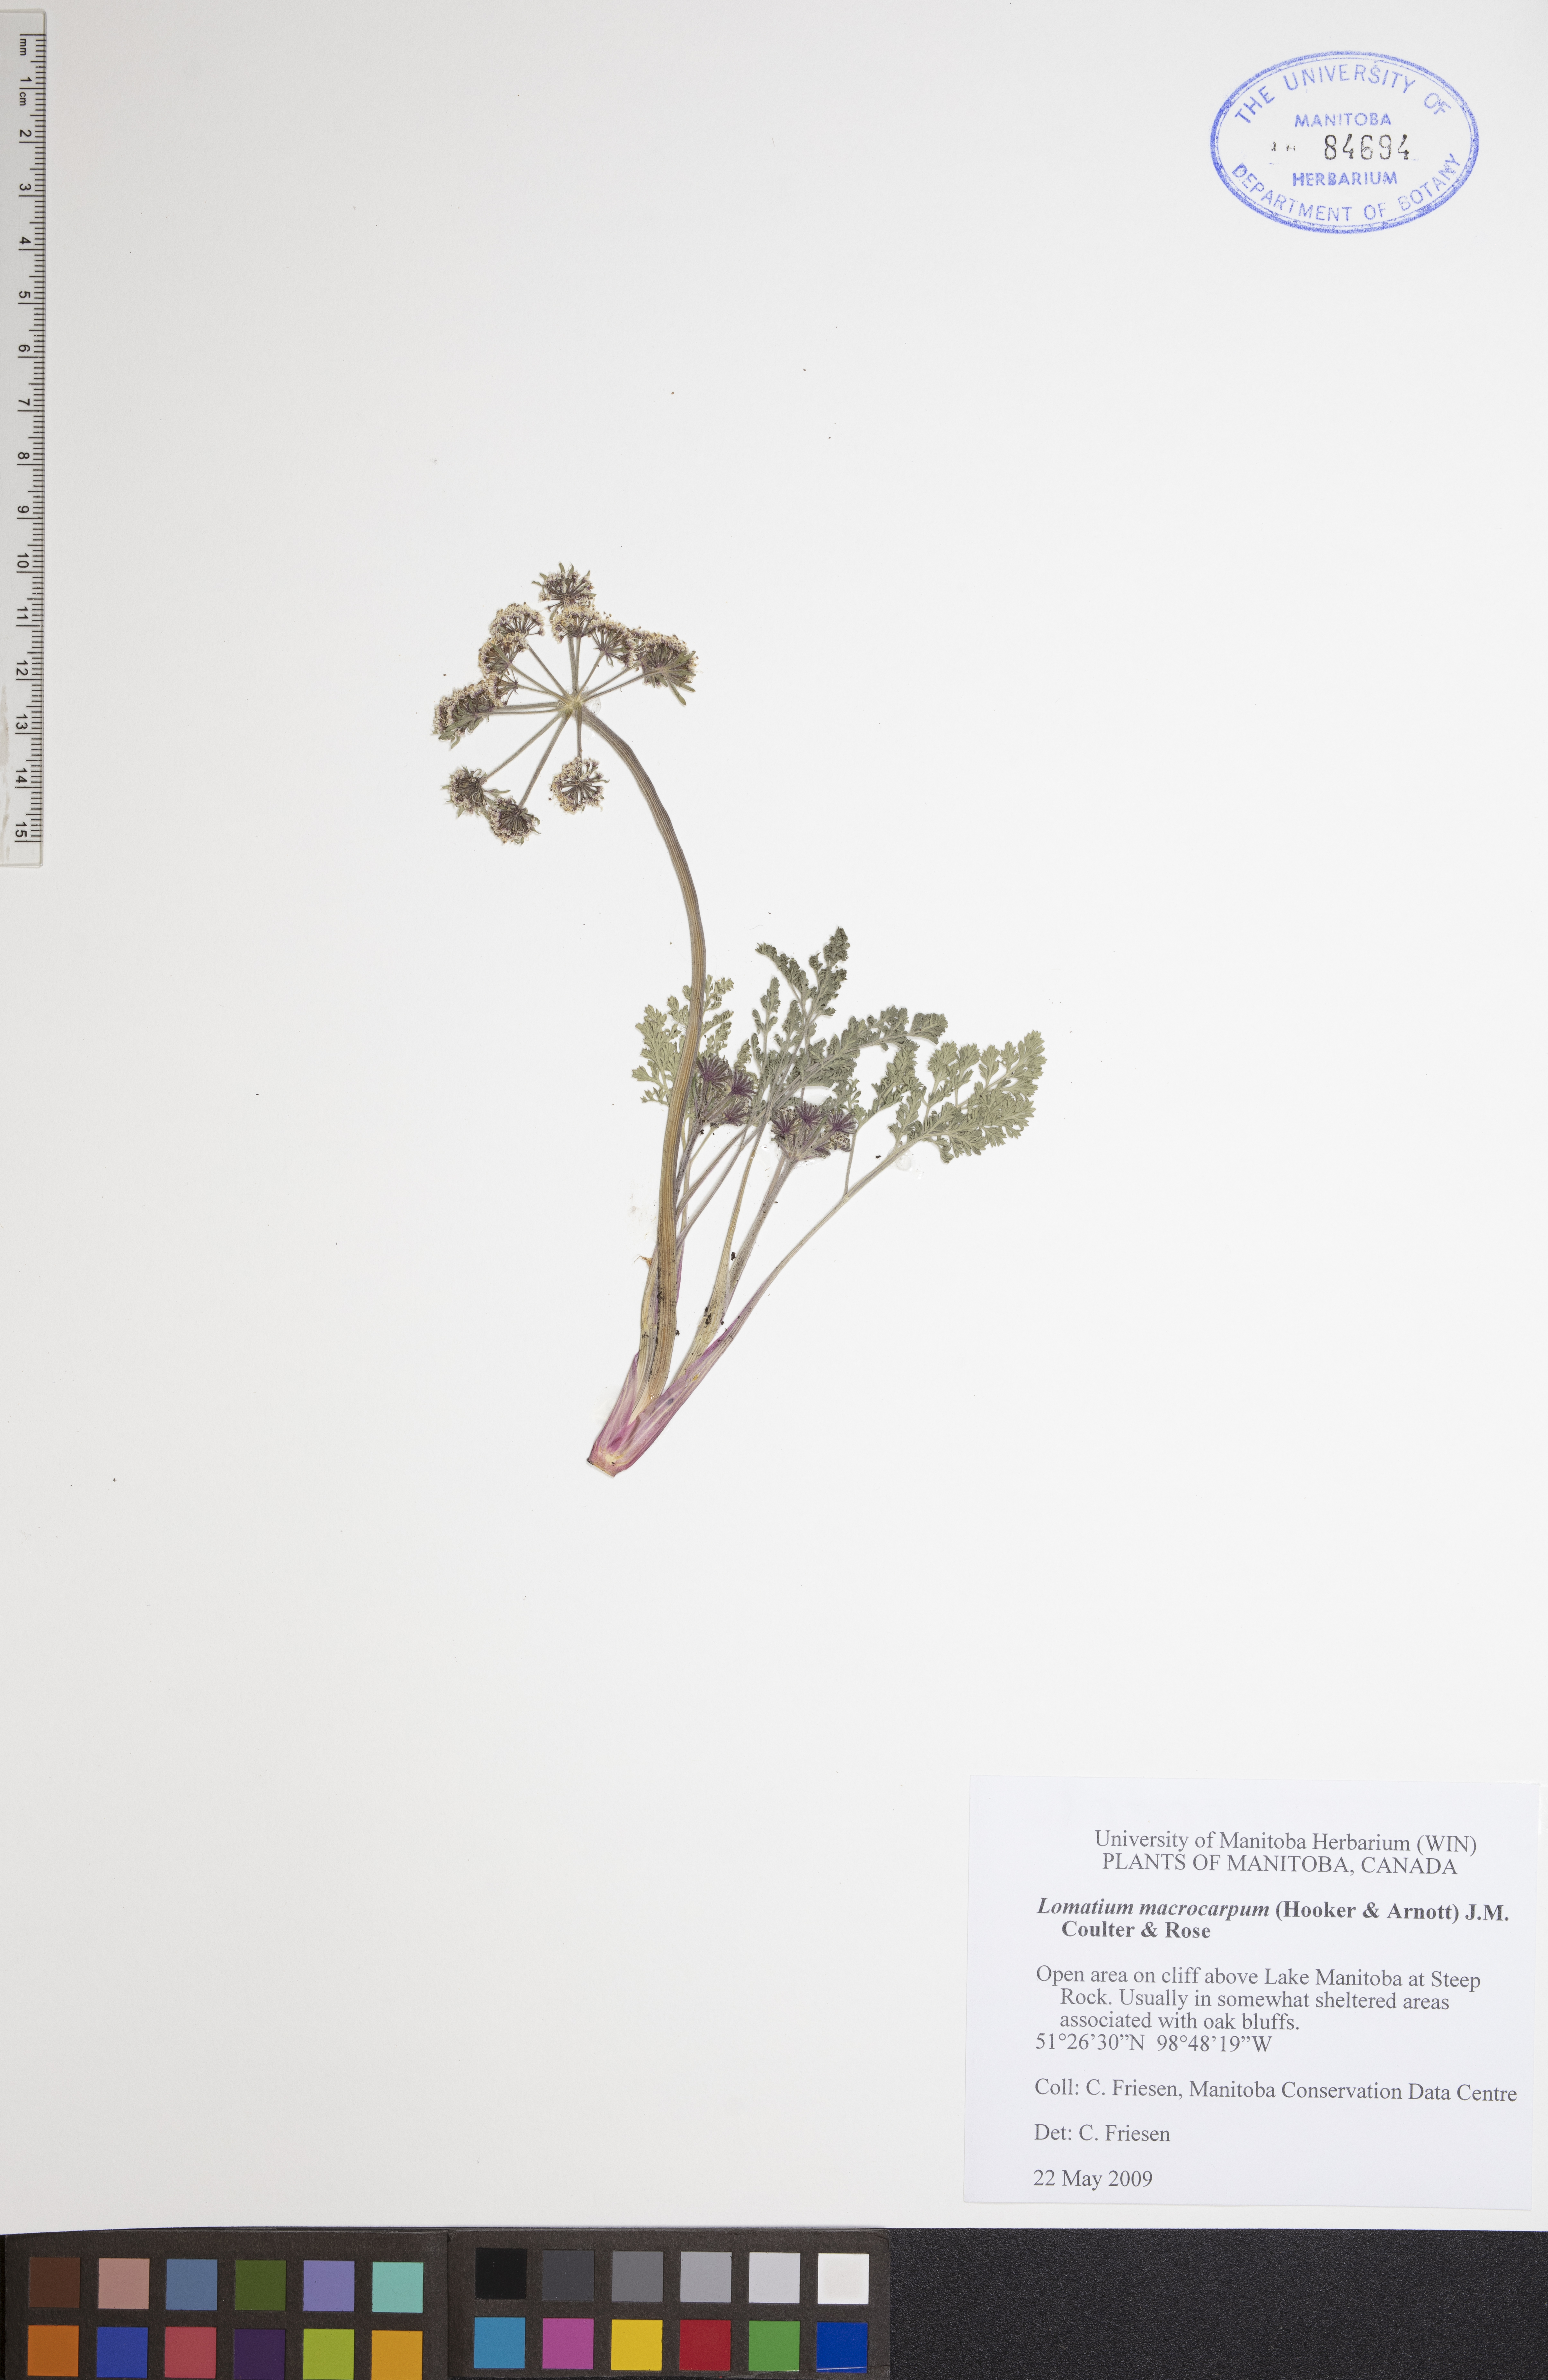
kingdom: Plantae
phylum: Tracheophyta
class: Magnoliopsida
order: Apiales
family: Apiaceae
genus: Lomatium
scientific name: Lomatium macrocarpum
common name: Big-seed biscuitroot
